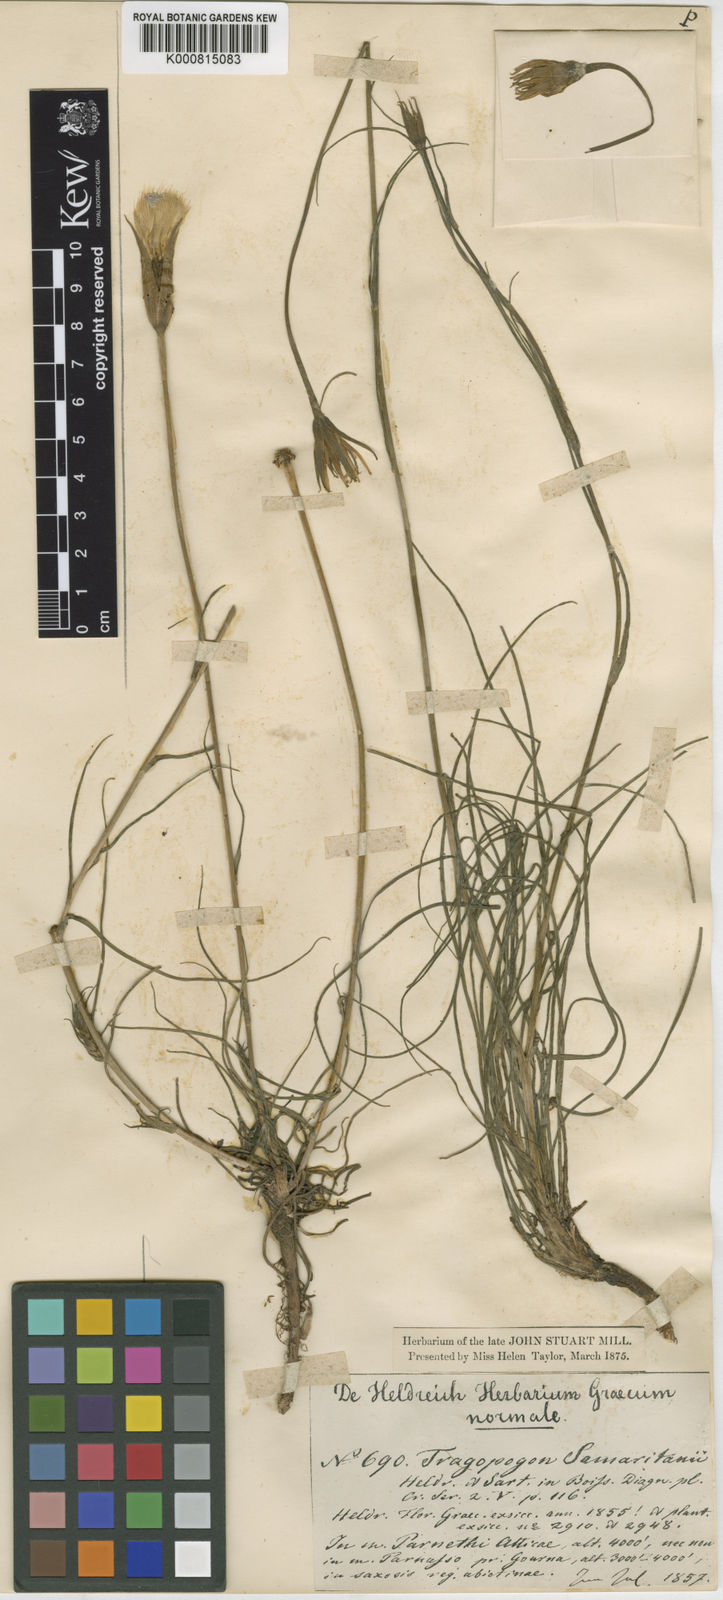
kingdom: Plantae
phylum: Tracheophyta
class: Magnoliopsida
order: Asterales
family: Asteraceae
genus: Tragopogon
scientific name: Tragopogon samaritani
